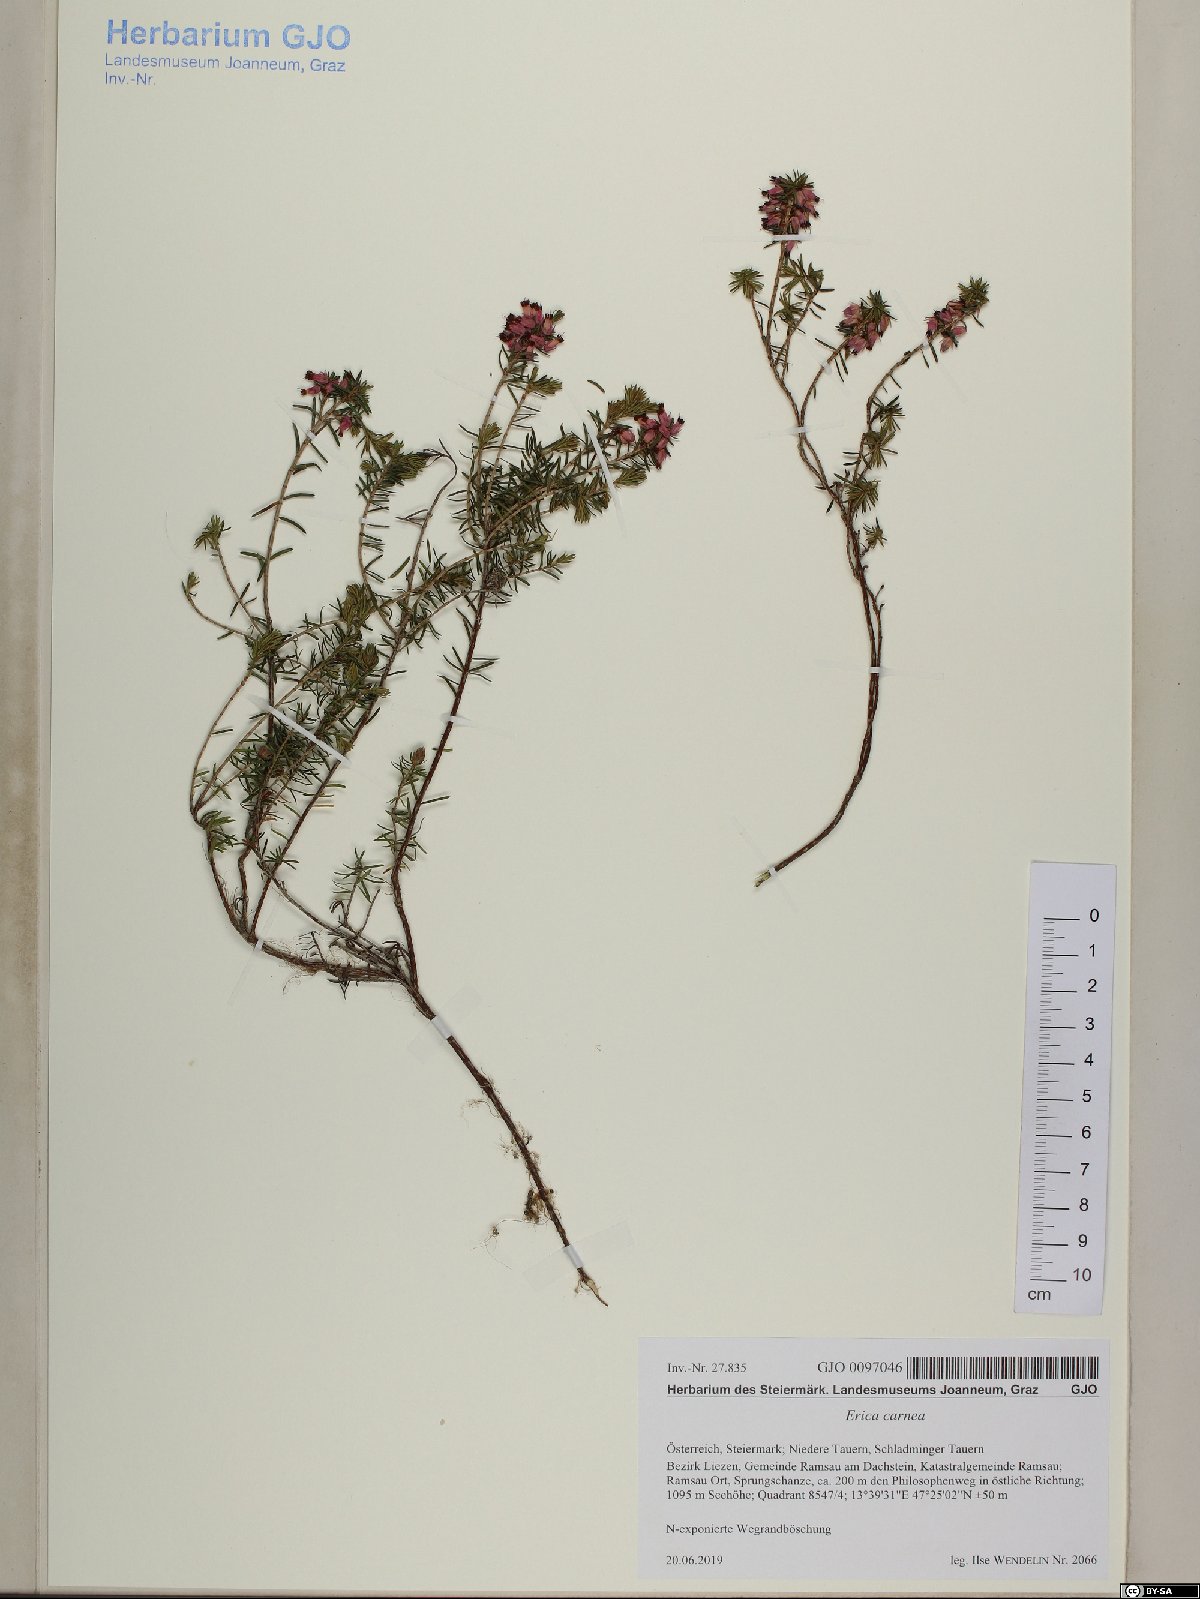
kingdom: Plantae
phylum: Tracheophyta
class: Magnoliopsida
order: Ericales
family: Ericaceae
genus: Erica
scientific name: Erica carnea
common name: Winter heath
